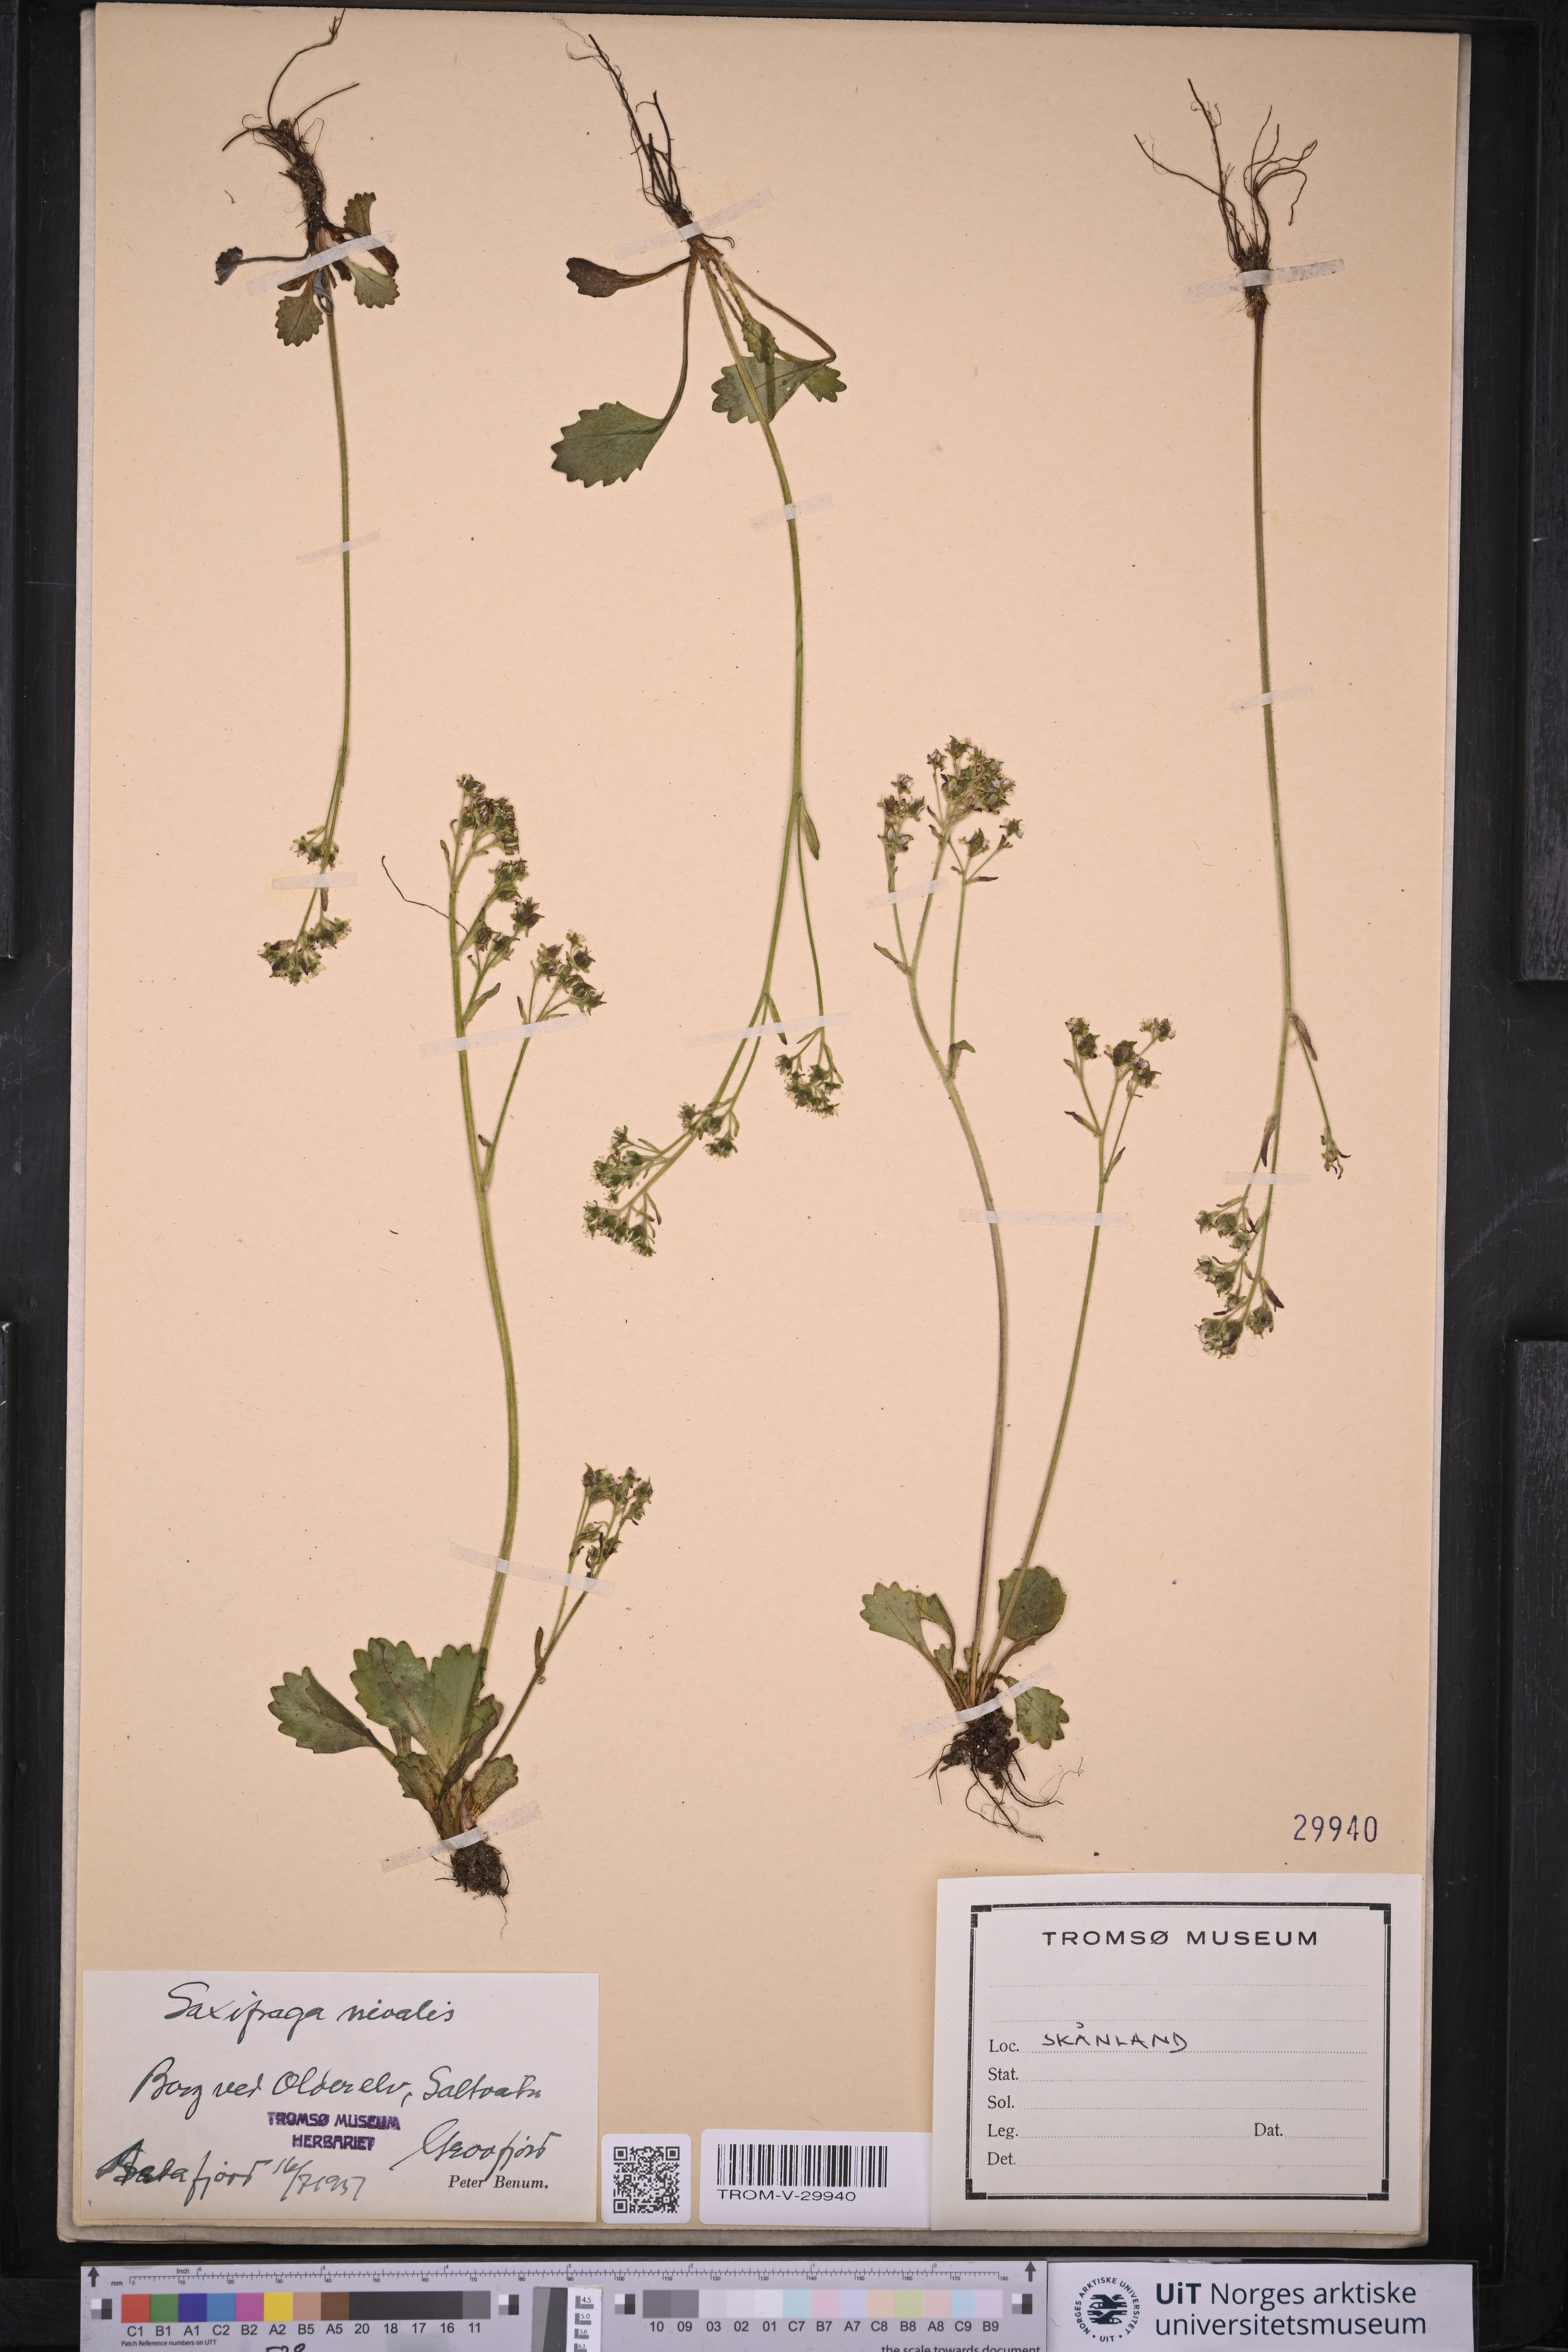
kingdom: Plantae
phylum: Tracheophyta
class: Magnoliopsida
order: Saxifragales
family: Saxifragaceae
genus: Micranthes
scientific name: Micranthes nivalis
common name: Alpine saxifrage
